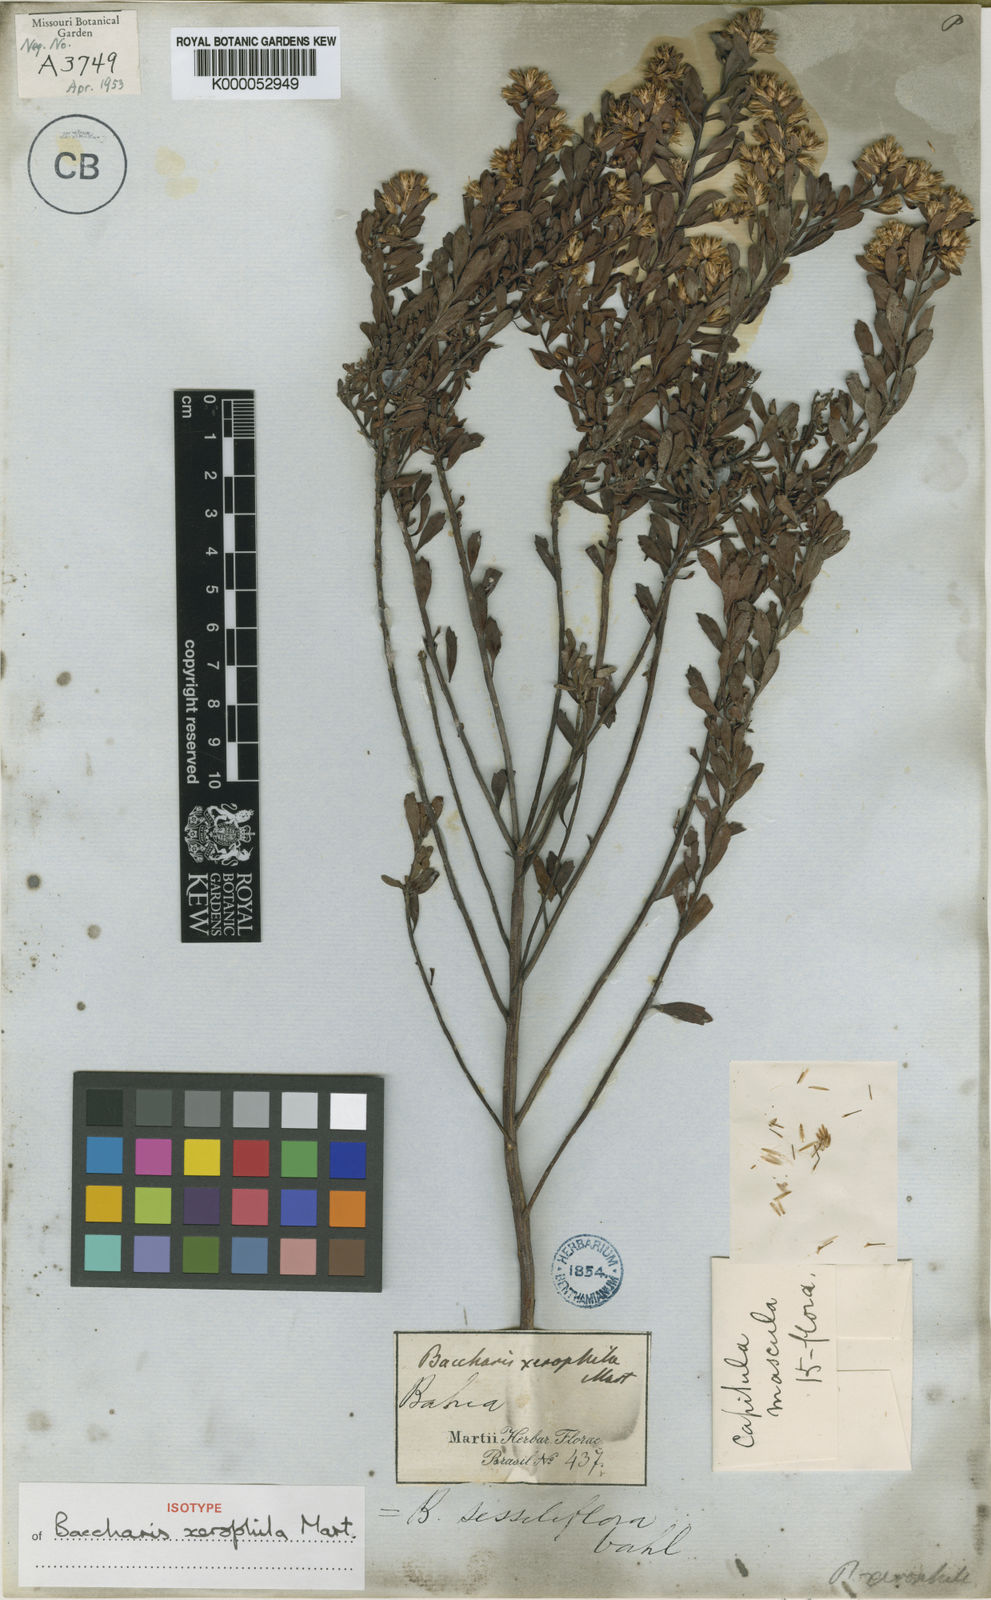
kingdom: Plantae
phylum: Tracheophyta
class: Magnoliopsida
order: Asterales
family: Asteraceae
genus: Baccharis
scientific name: Baccharis sessiliflora
